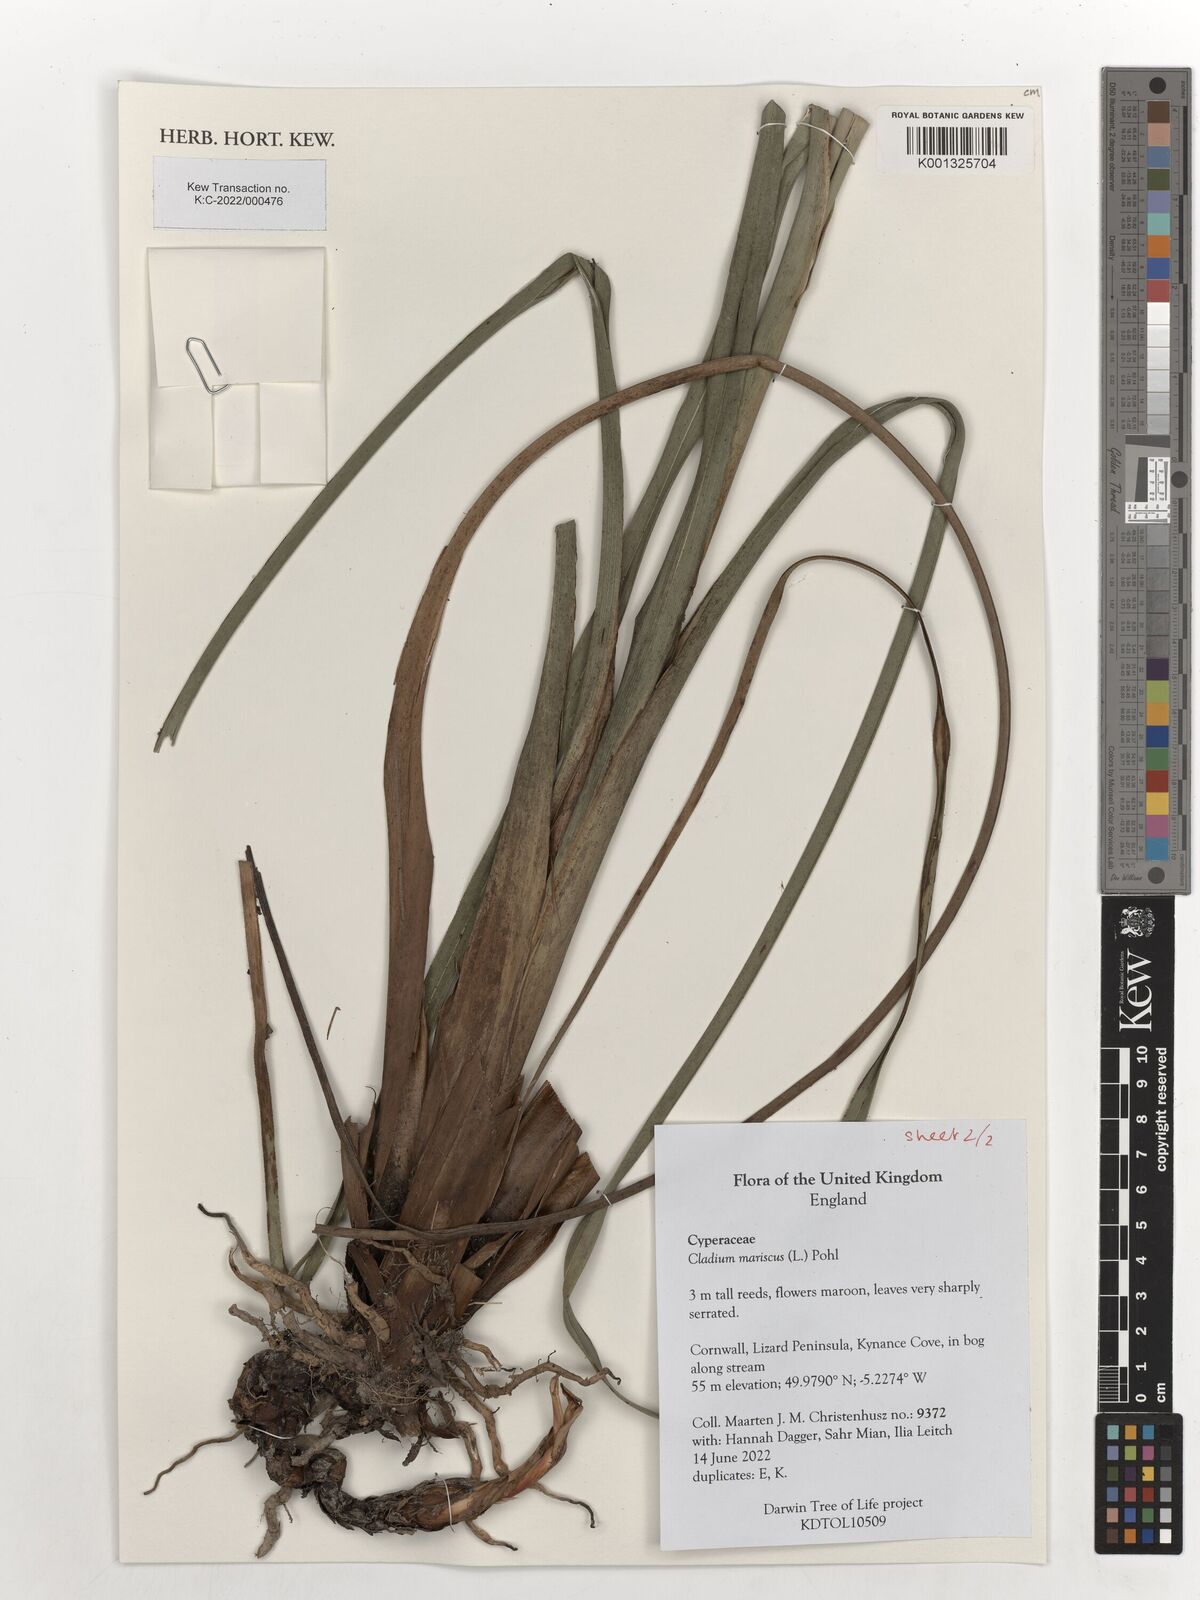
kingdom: Plantae
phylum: Tracheophyta
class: Liliopsida
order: Poales
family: Cyperaceae
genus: Cladium
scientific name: Cladium mariscus
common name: Great fen-sedge
